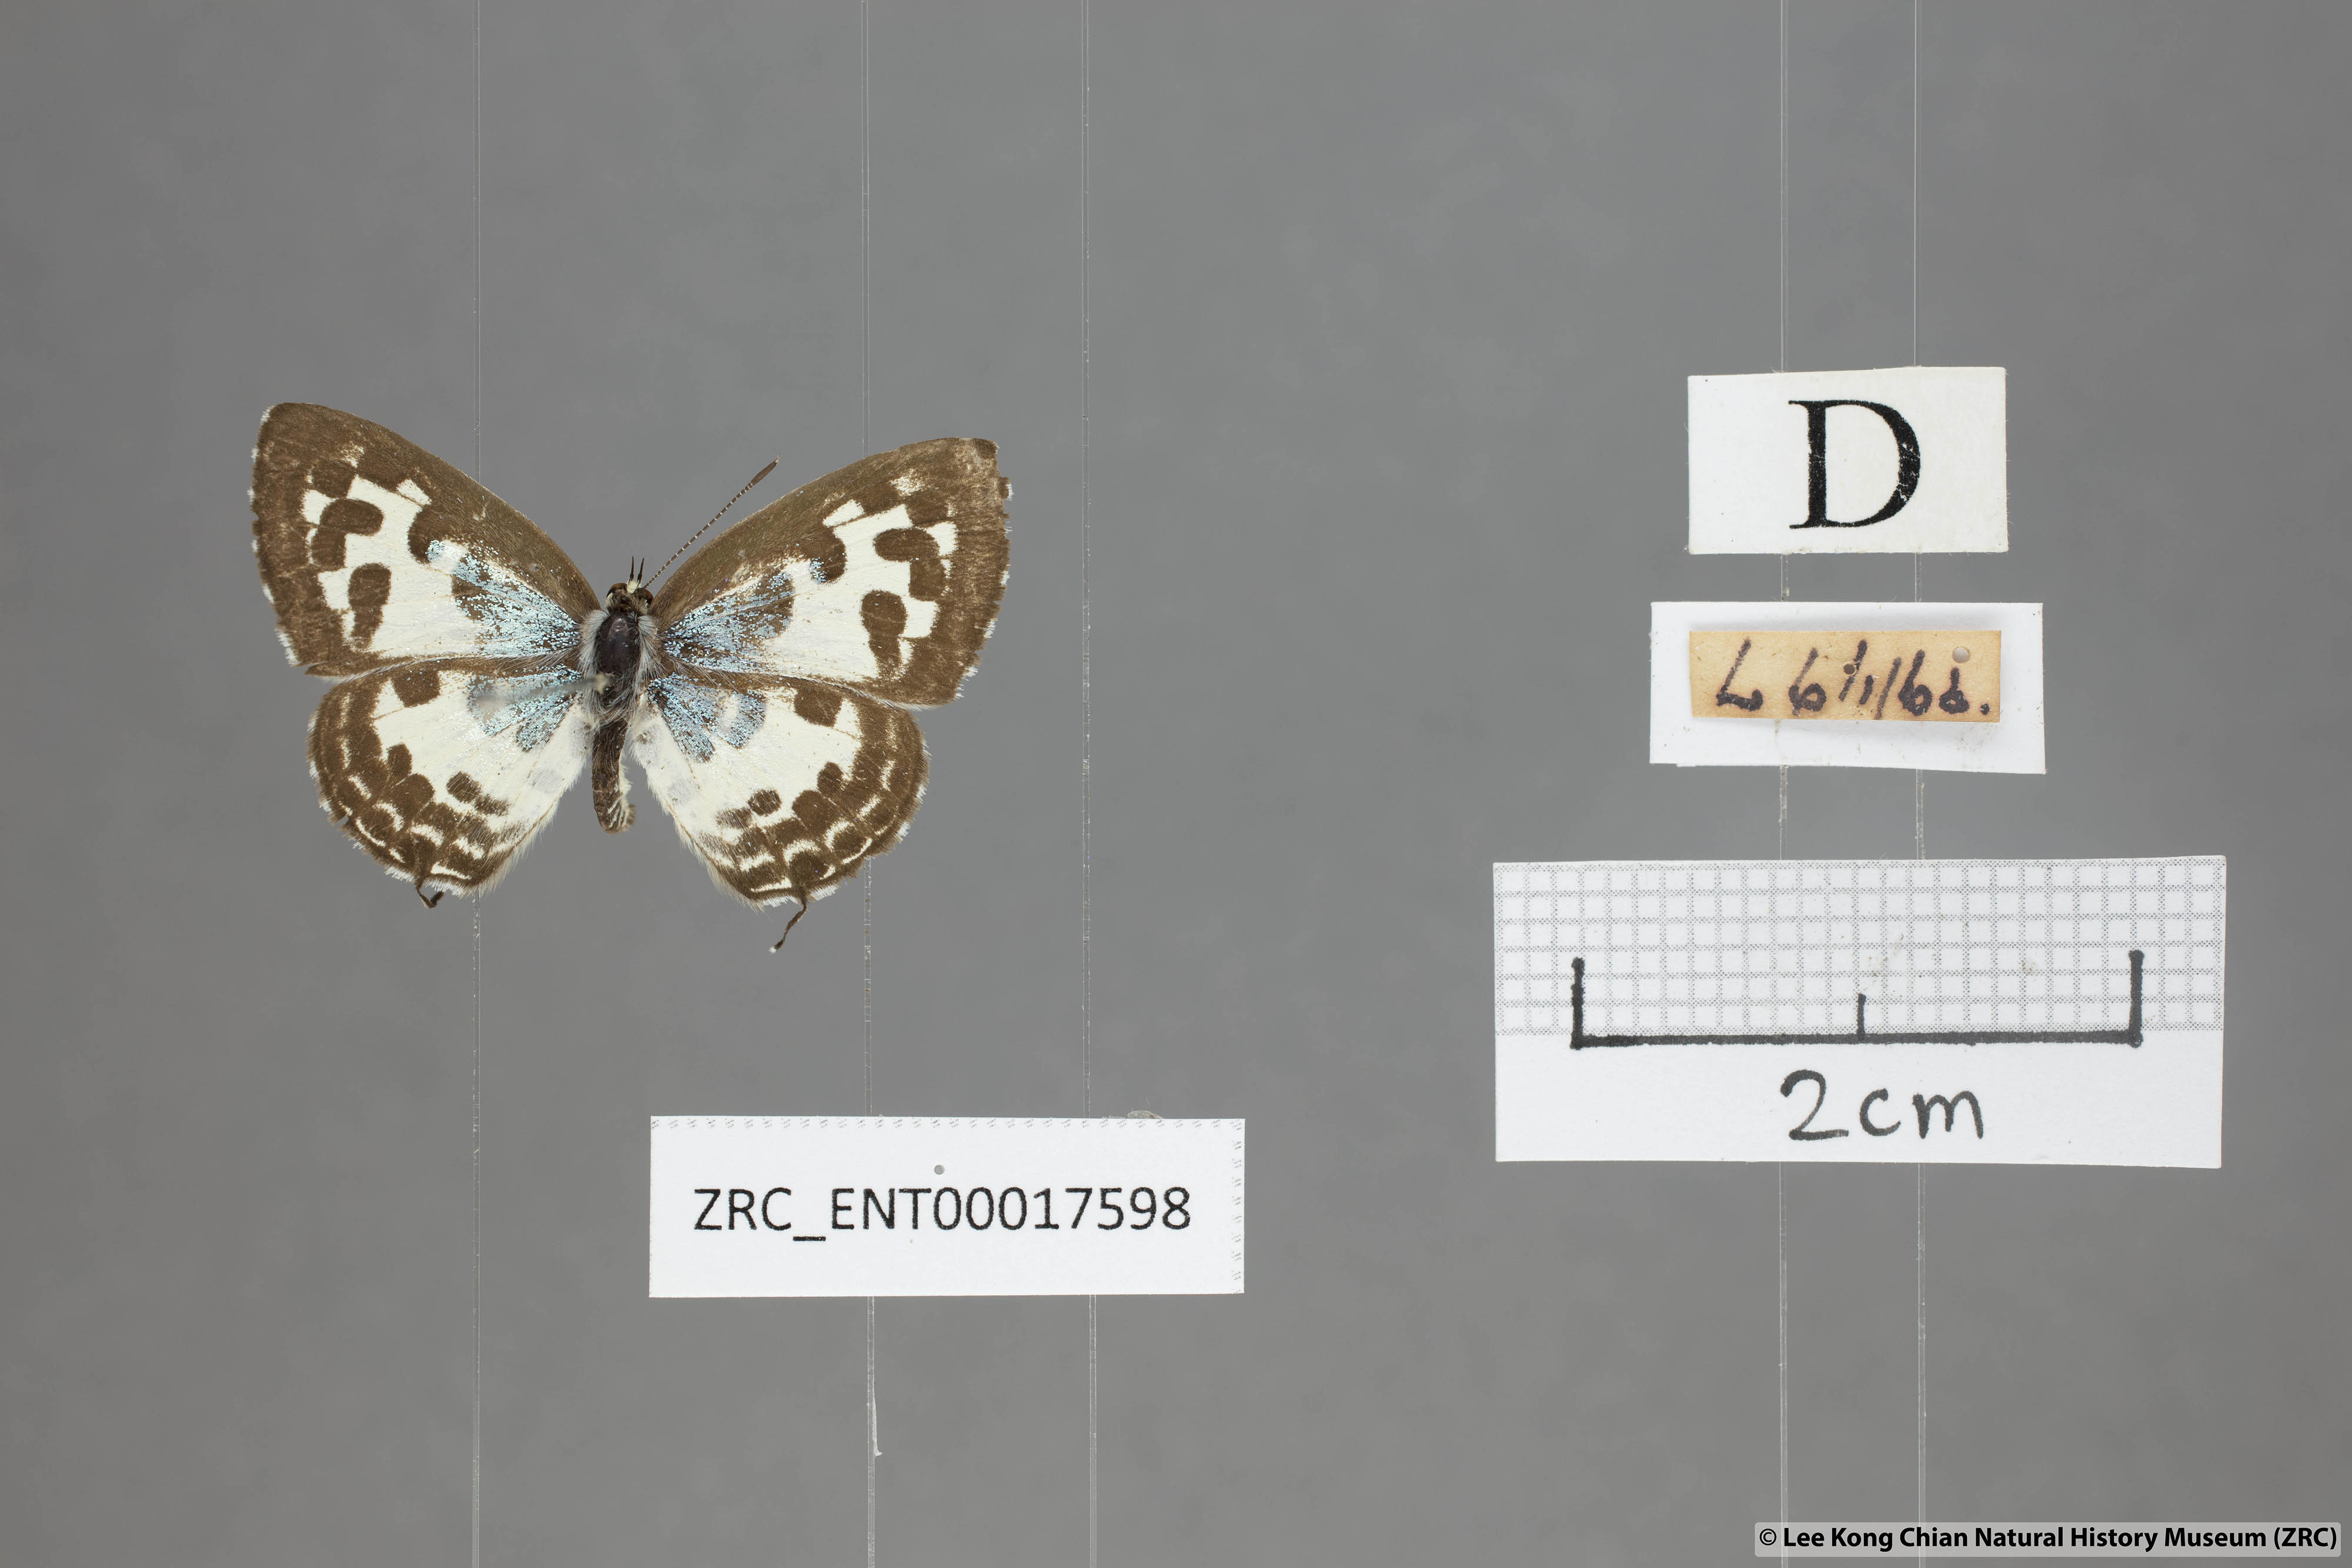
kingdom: Animalia
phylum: Arthropoda
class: Insecta
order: Lepidoptera
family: Lycaenidae
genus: Castalius
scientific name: Castalius rosimon
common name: Common pierrot
